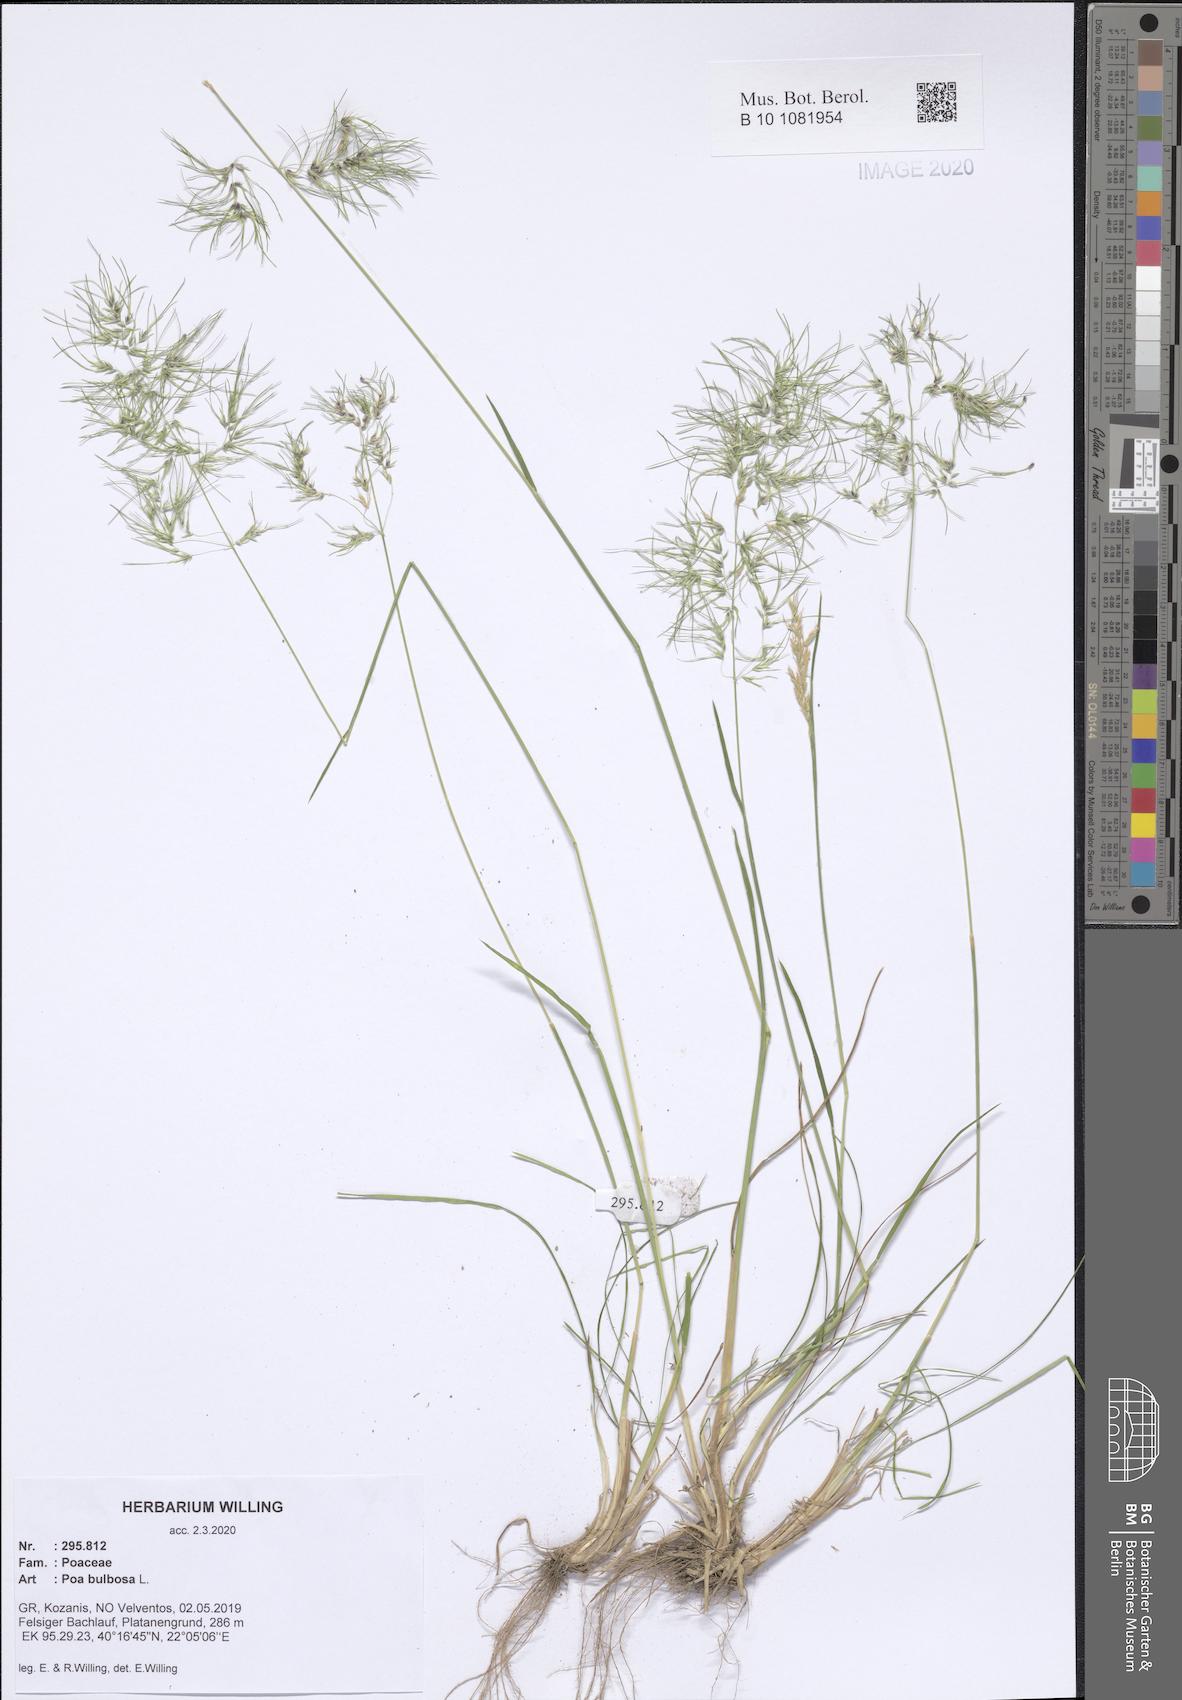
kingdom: Plantae
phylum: Tracheophyta
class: Liliopsida
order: Poales
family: Poaceae
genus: Poa
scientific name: Poa bulbosa
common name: Bulbous bluegrass
